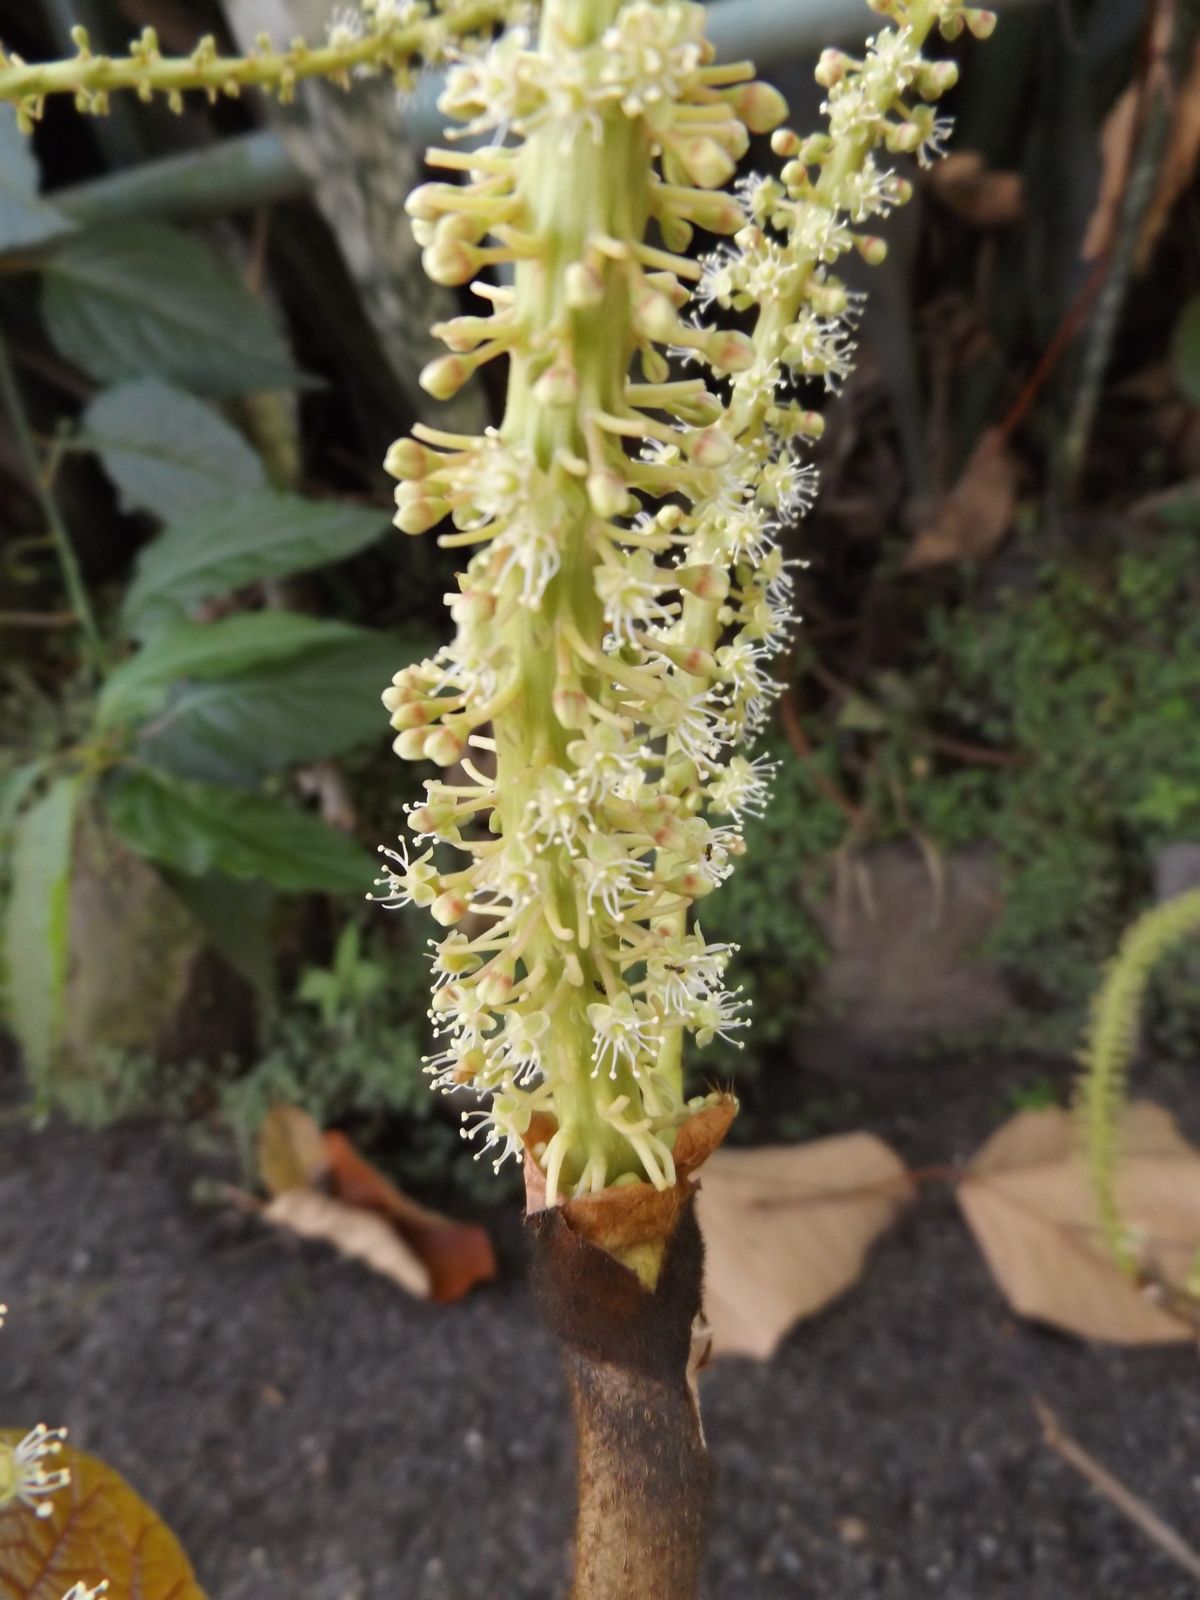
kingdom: Plantae
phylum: Tracheophyta
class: Magnoliopsida
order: Caryophyllales
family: Polygonaceae
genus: Coccoloba
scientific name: Coccoloba pubescens
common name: Mountain-grape
